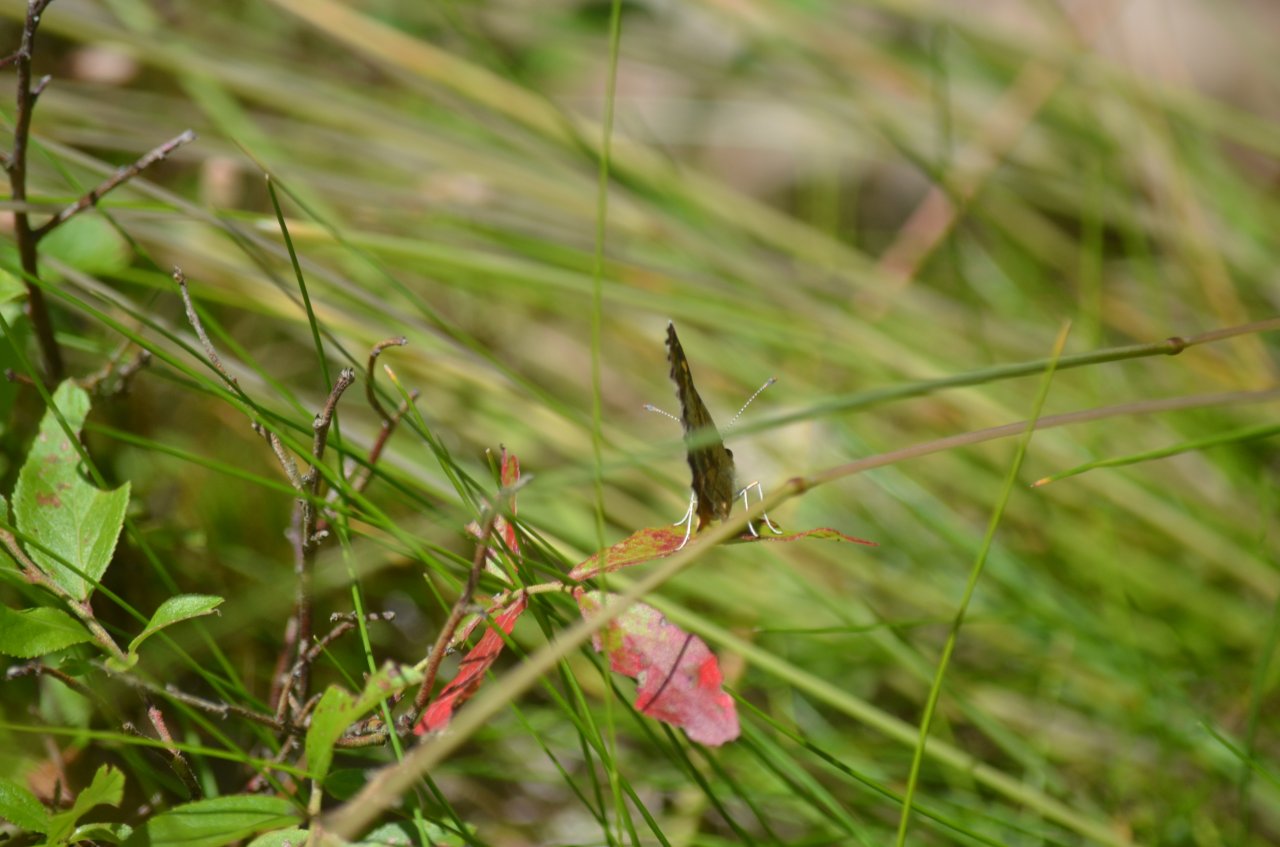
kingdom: Animalia
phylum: Arthropoda
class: Insecta
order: Lepidoptera
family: Nymphalidae
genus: Phyciodes
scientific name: Phyciodes
